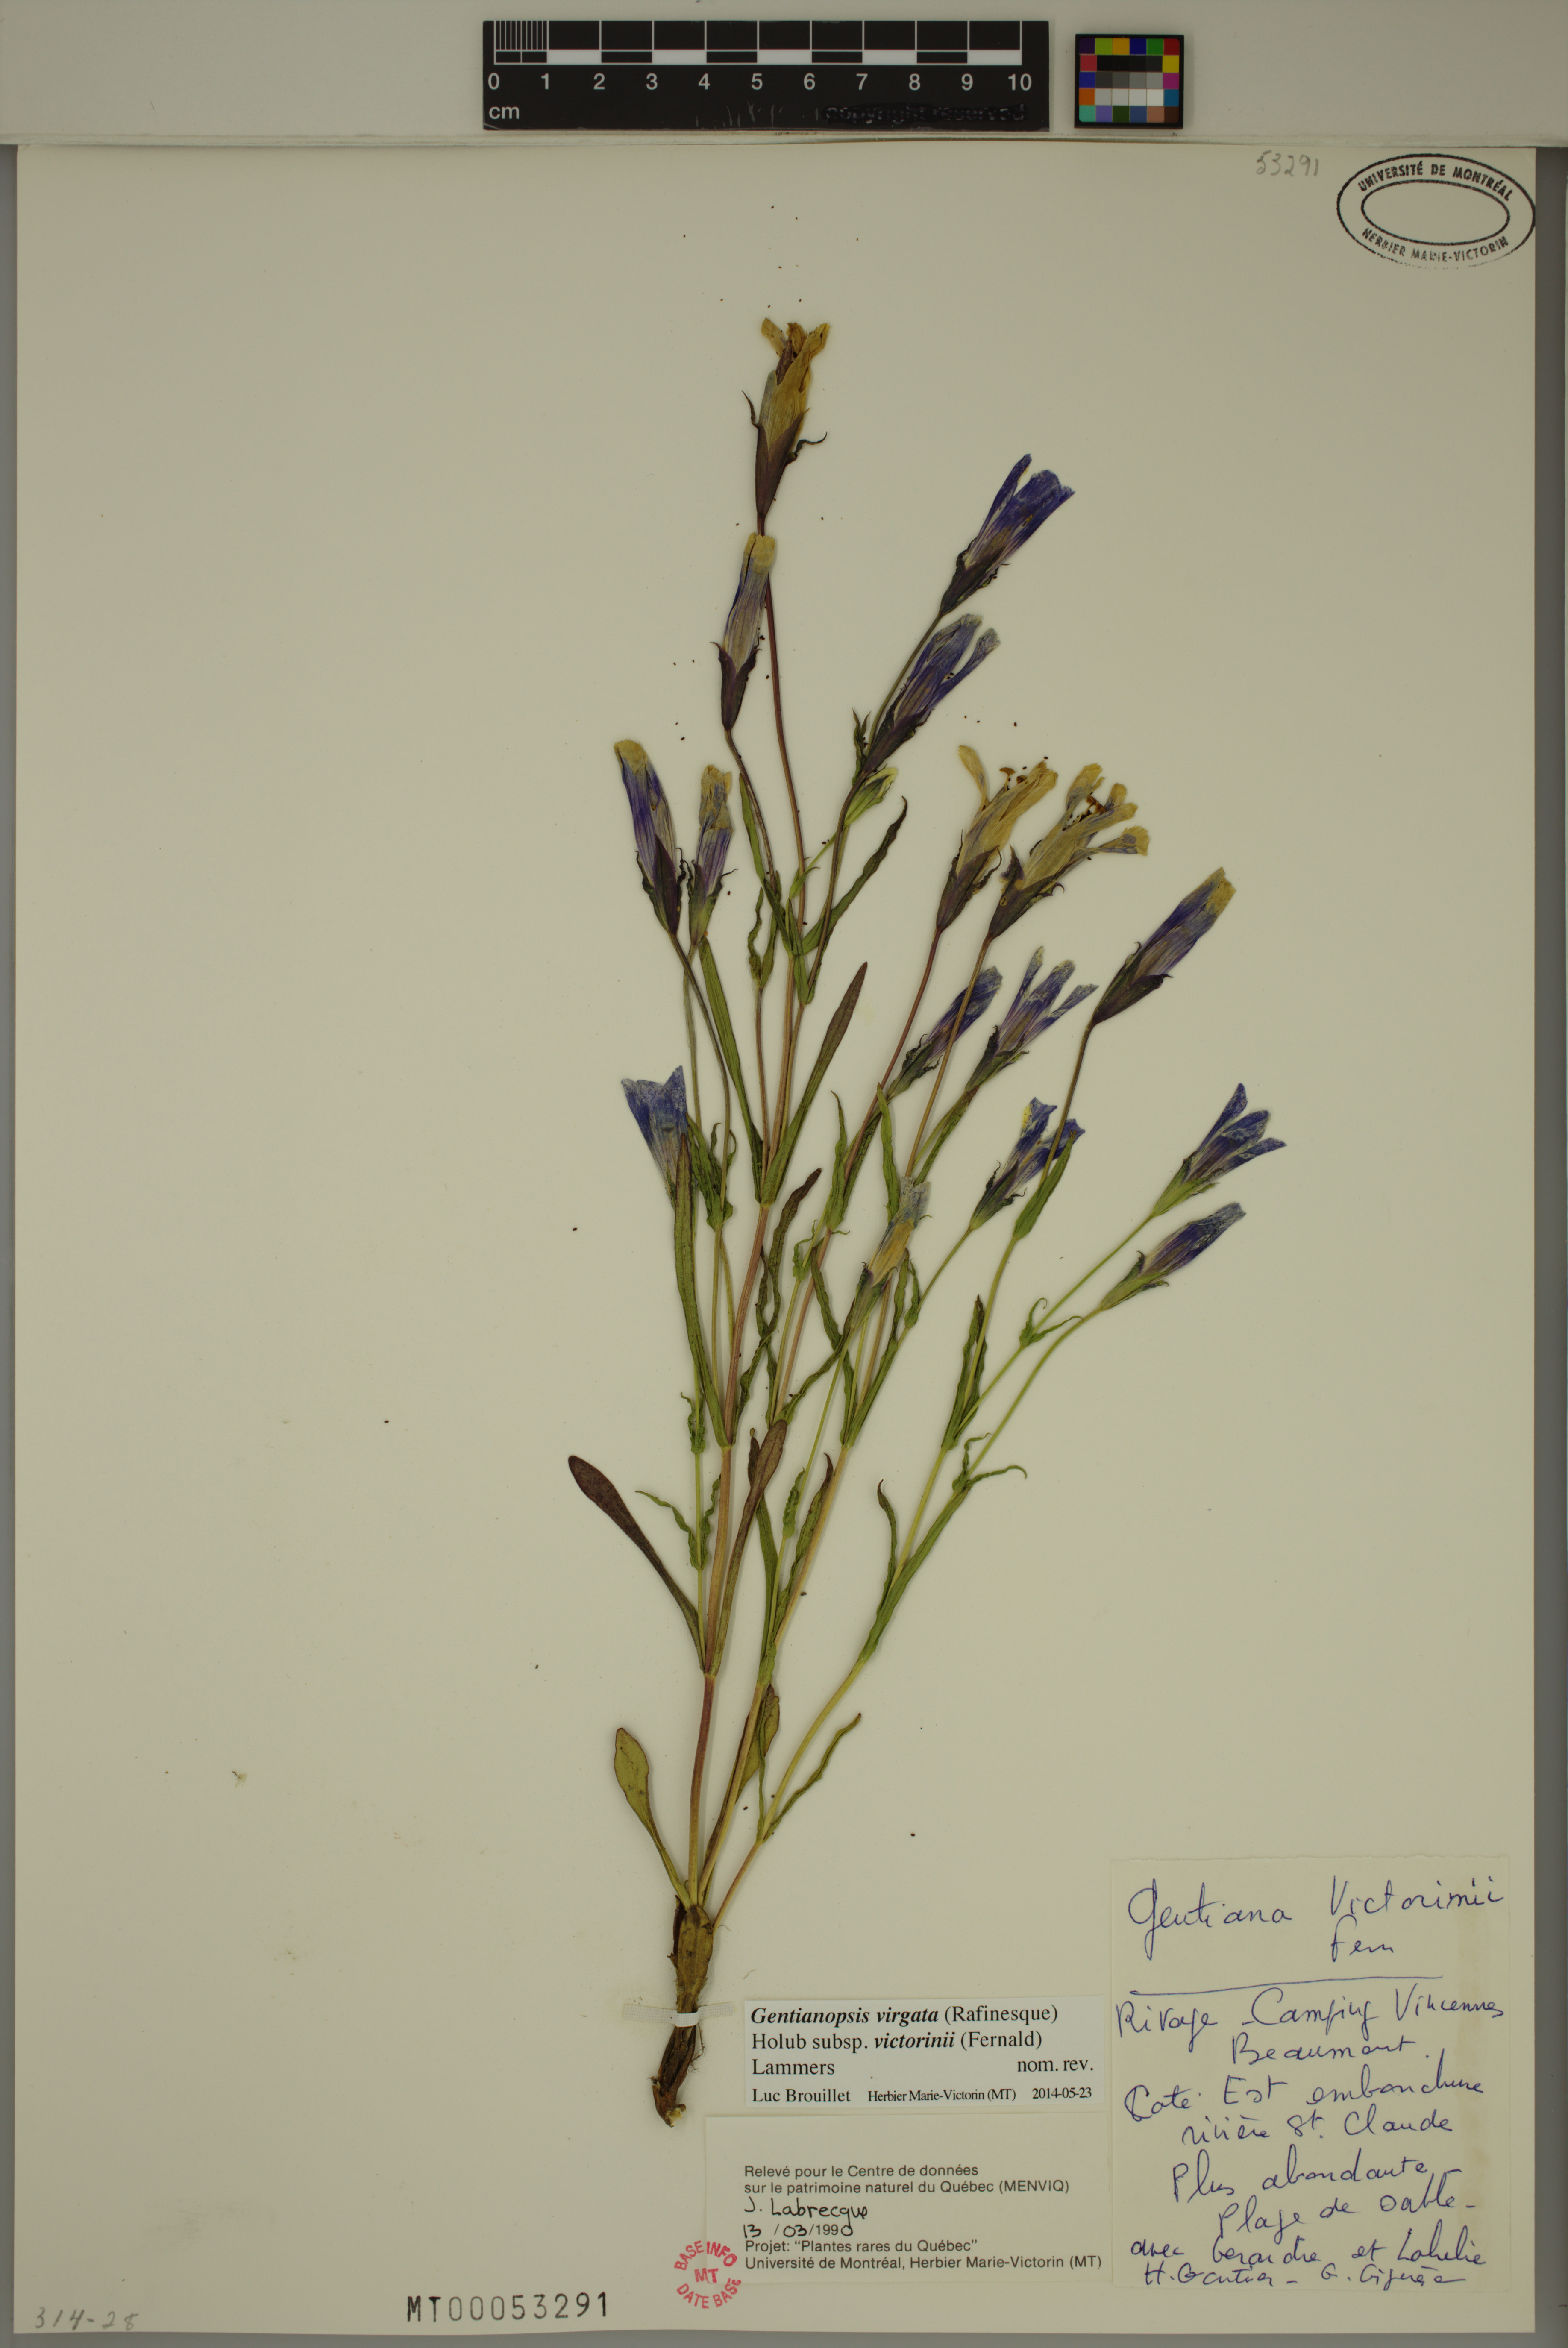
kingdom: Plantae
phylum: Tracheophyta
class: Magnoliopsida
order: Gentianales
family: Gentianaceae
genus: Gentianopsis
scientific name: Gentianopsis victorinii
